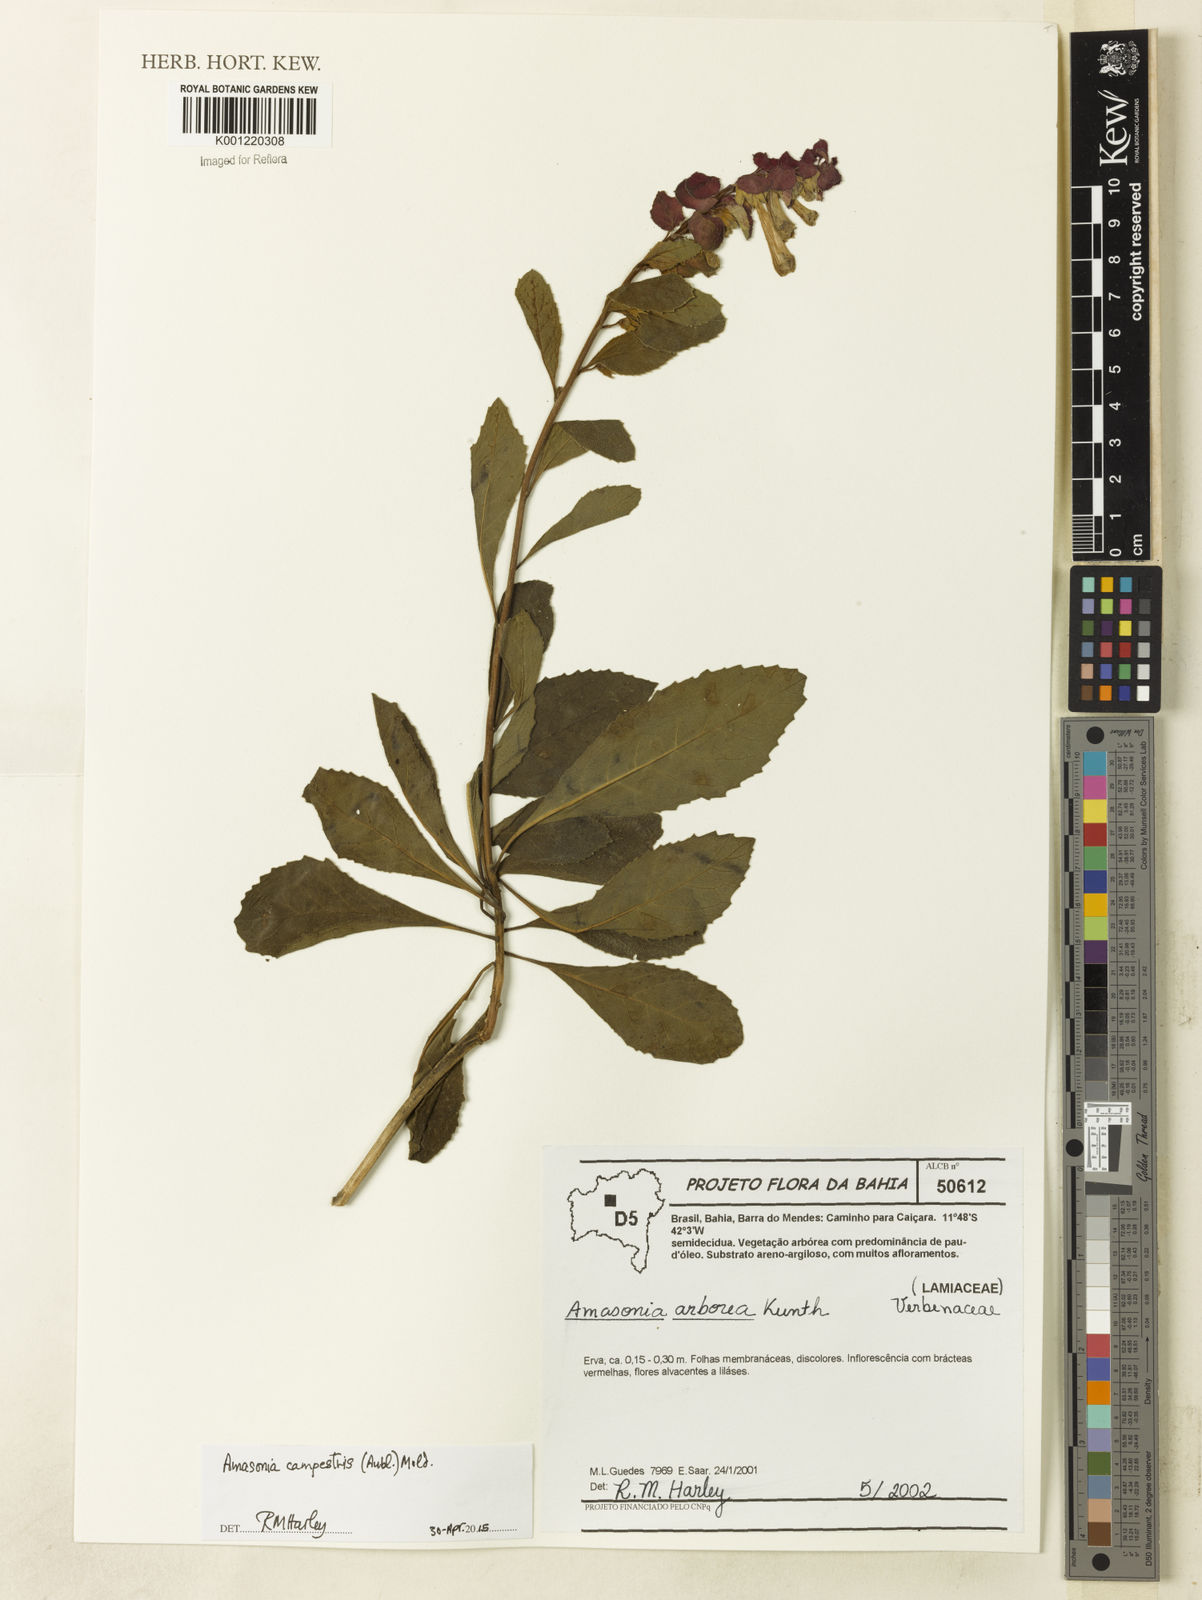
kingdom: Plantae
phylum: Tracheophyta
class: Magnoliopsida
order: Lamiales
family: Lamiaceae
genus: Amasonia
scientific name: Amasonia campestris
